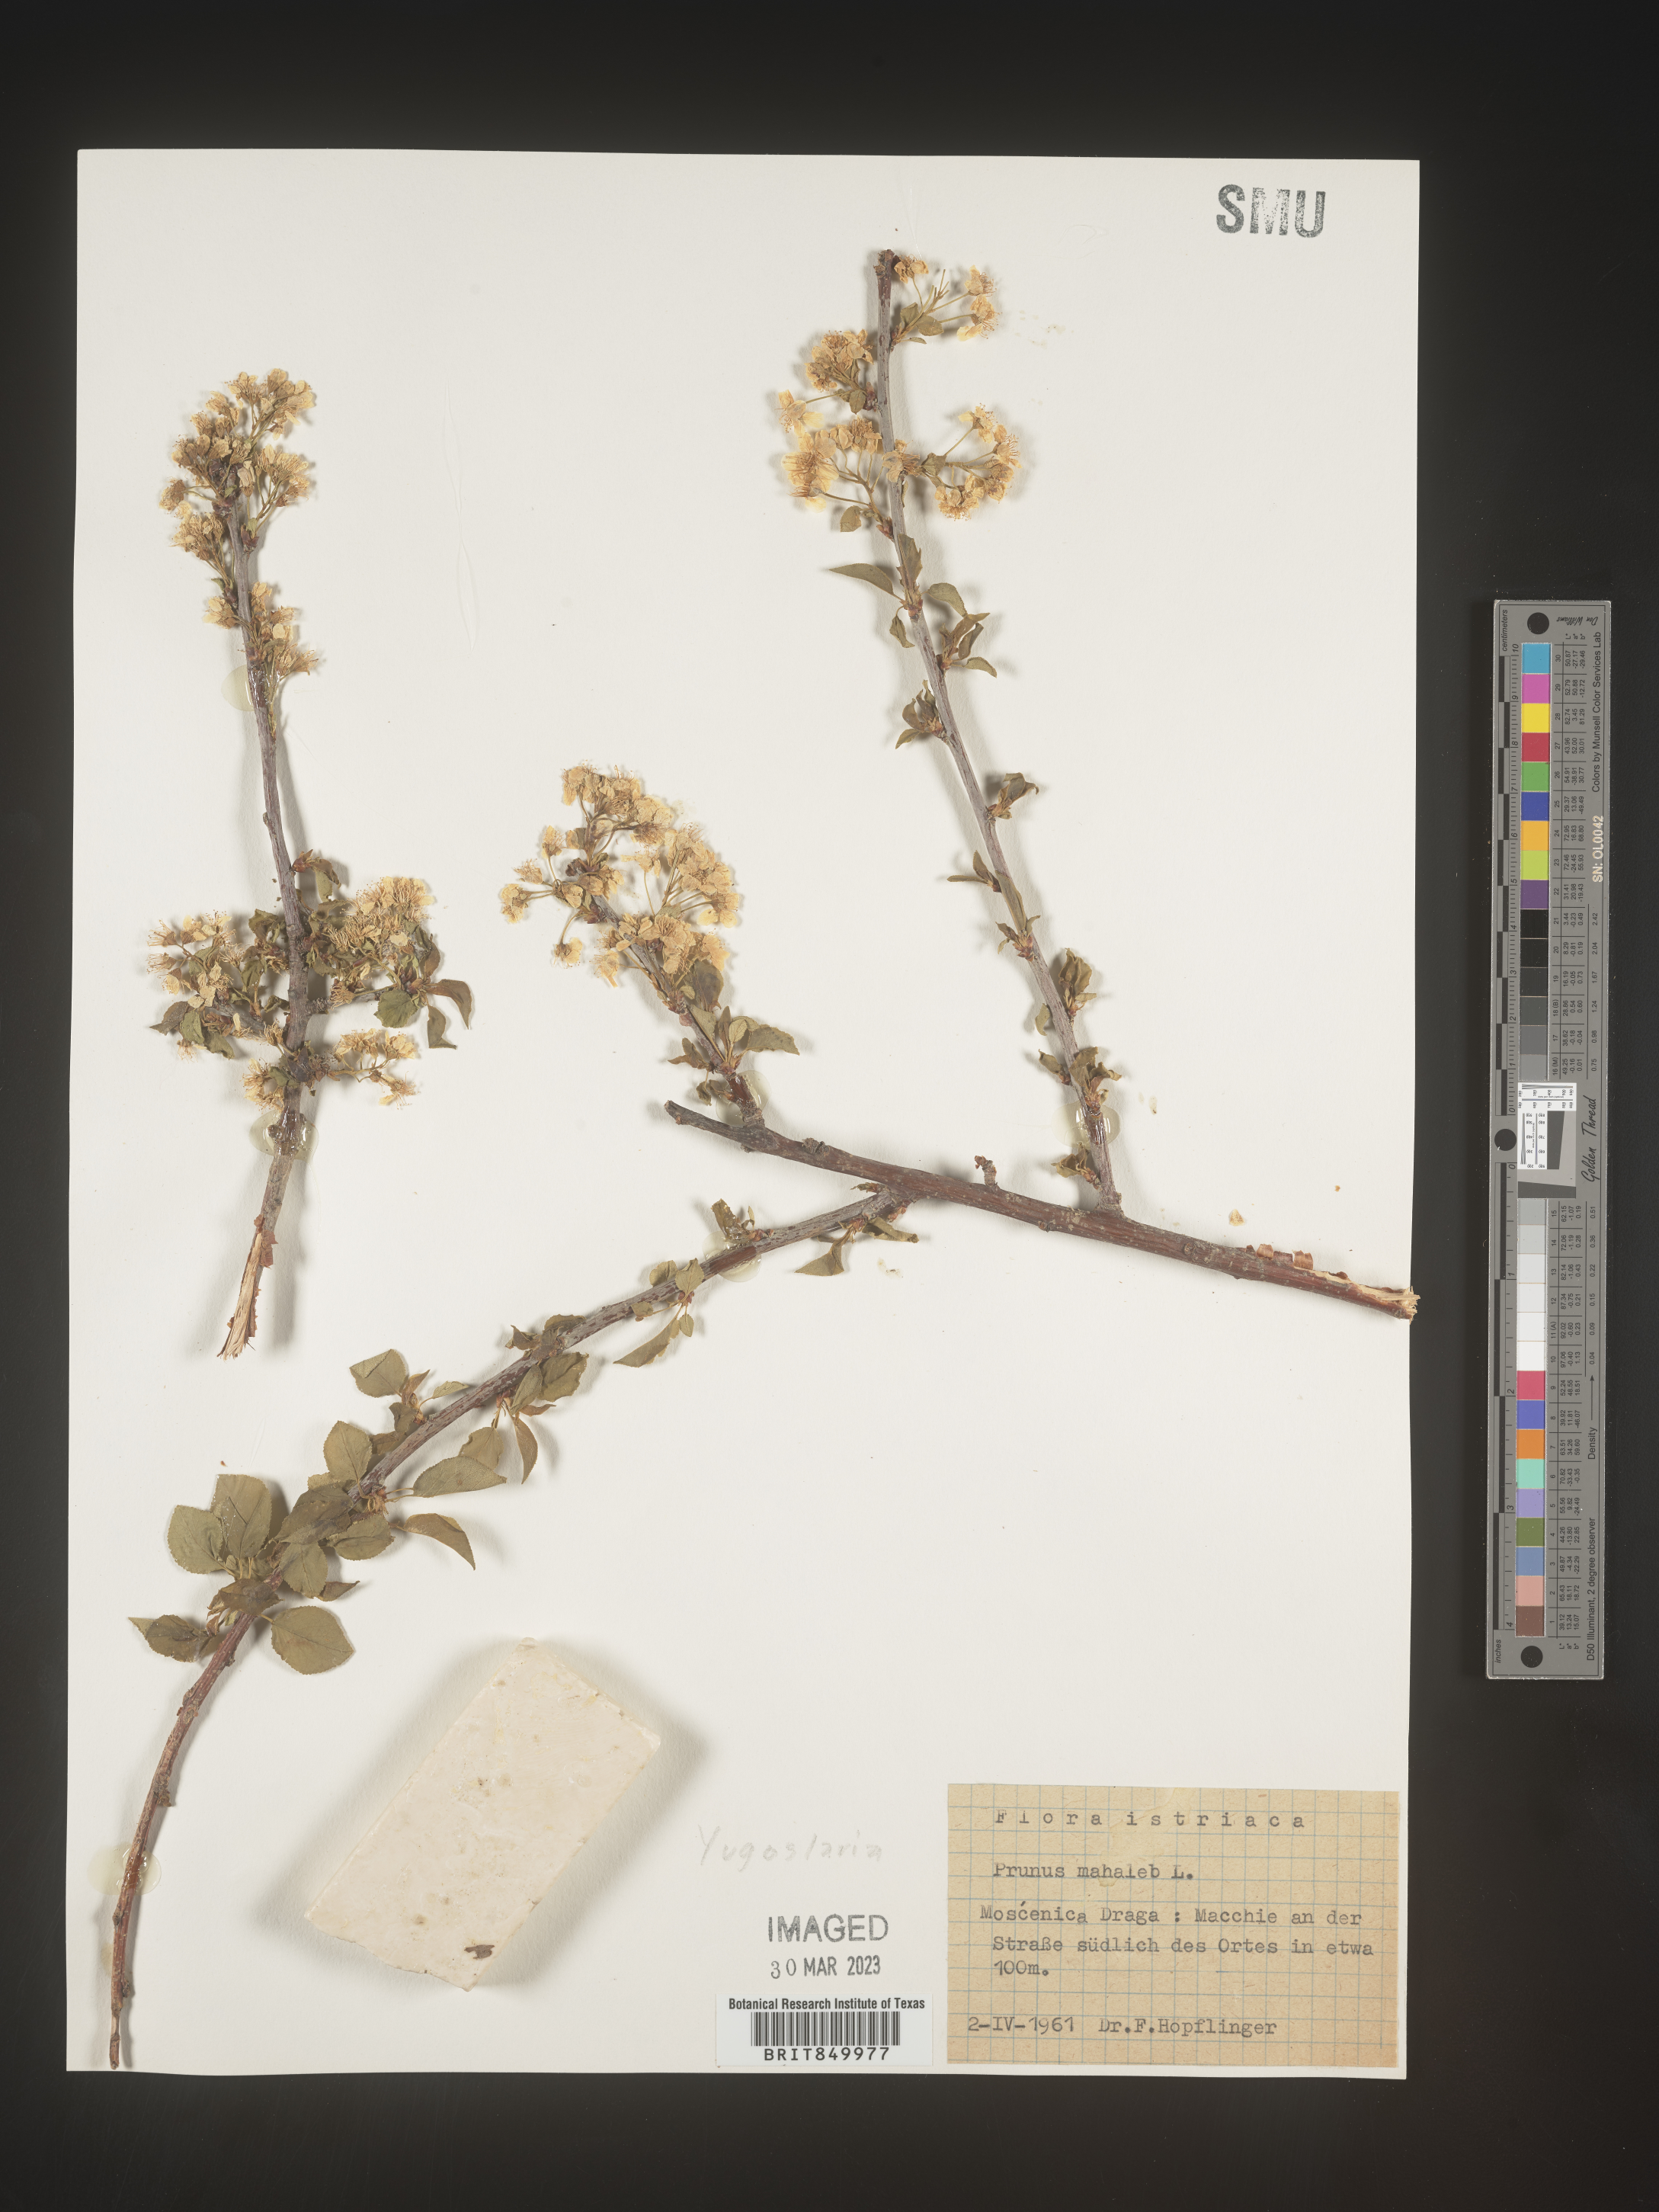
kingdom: Plantae
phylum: Tracheophyta
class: Magnoliopsida
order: Rosales
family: Rosaceae
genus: Prunus
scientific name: Prunus
